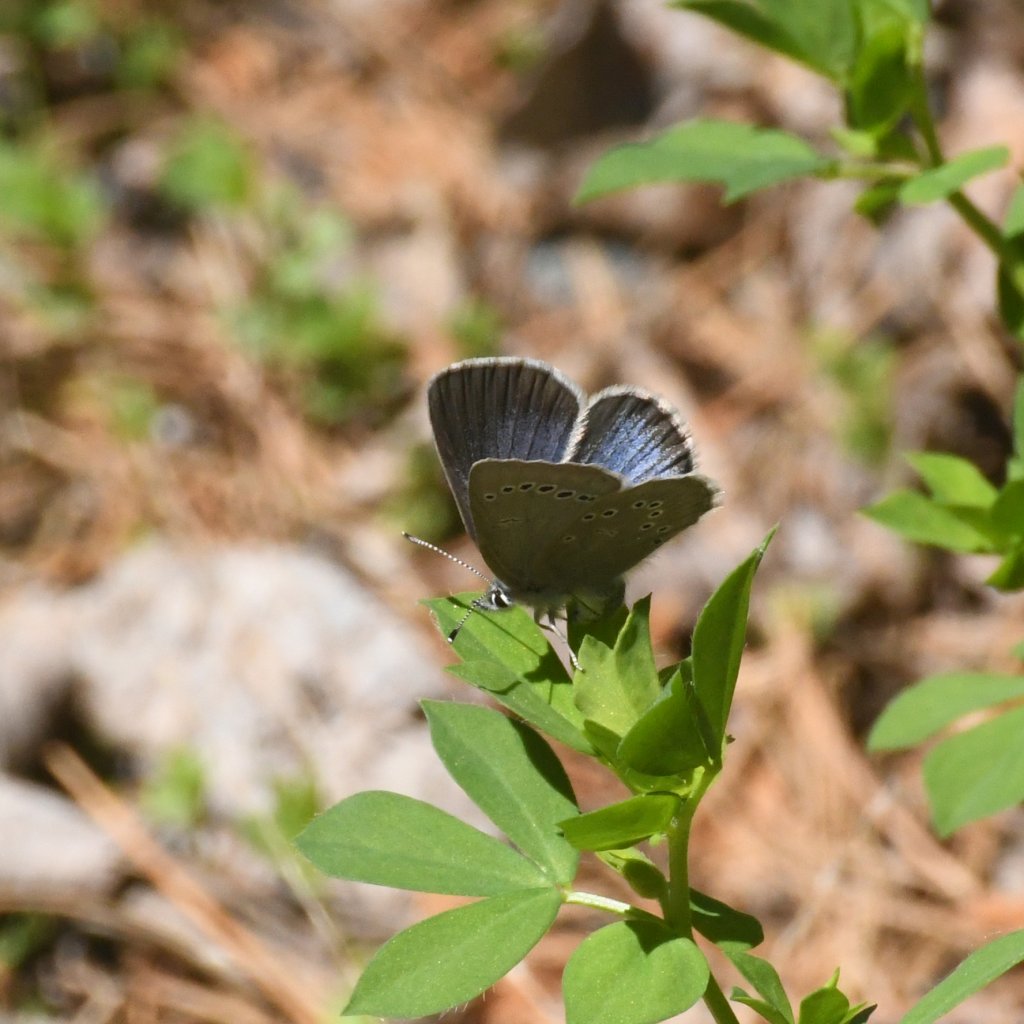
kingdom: Animalia
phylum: Arthropoda
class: Insecta
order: Lepidoptera
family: Lycaenidae
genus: Glaucopsyche
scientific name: Glaucopsyche lygdamus
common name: Silvery Blue
